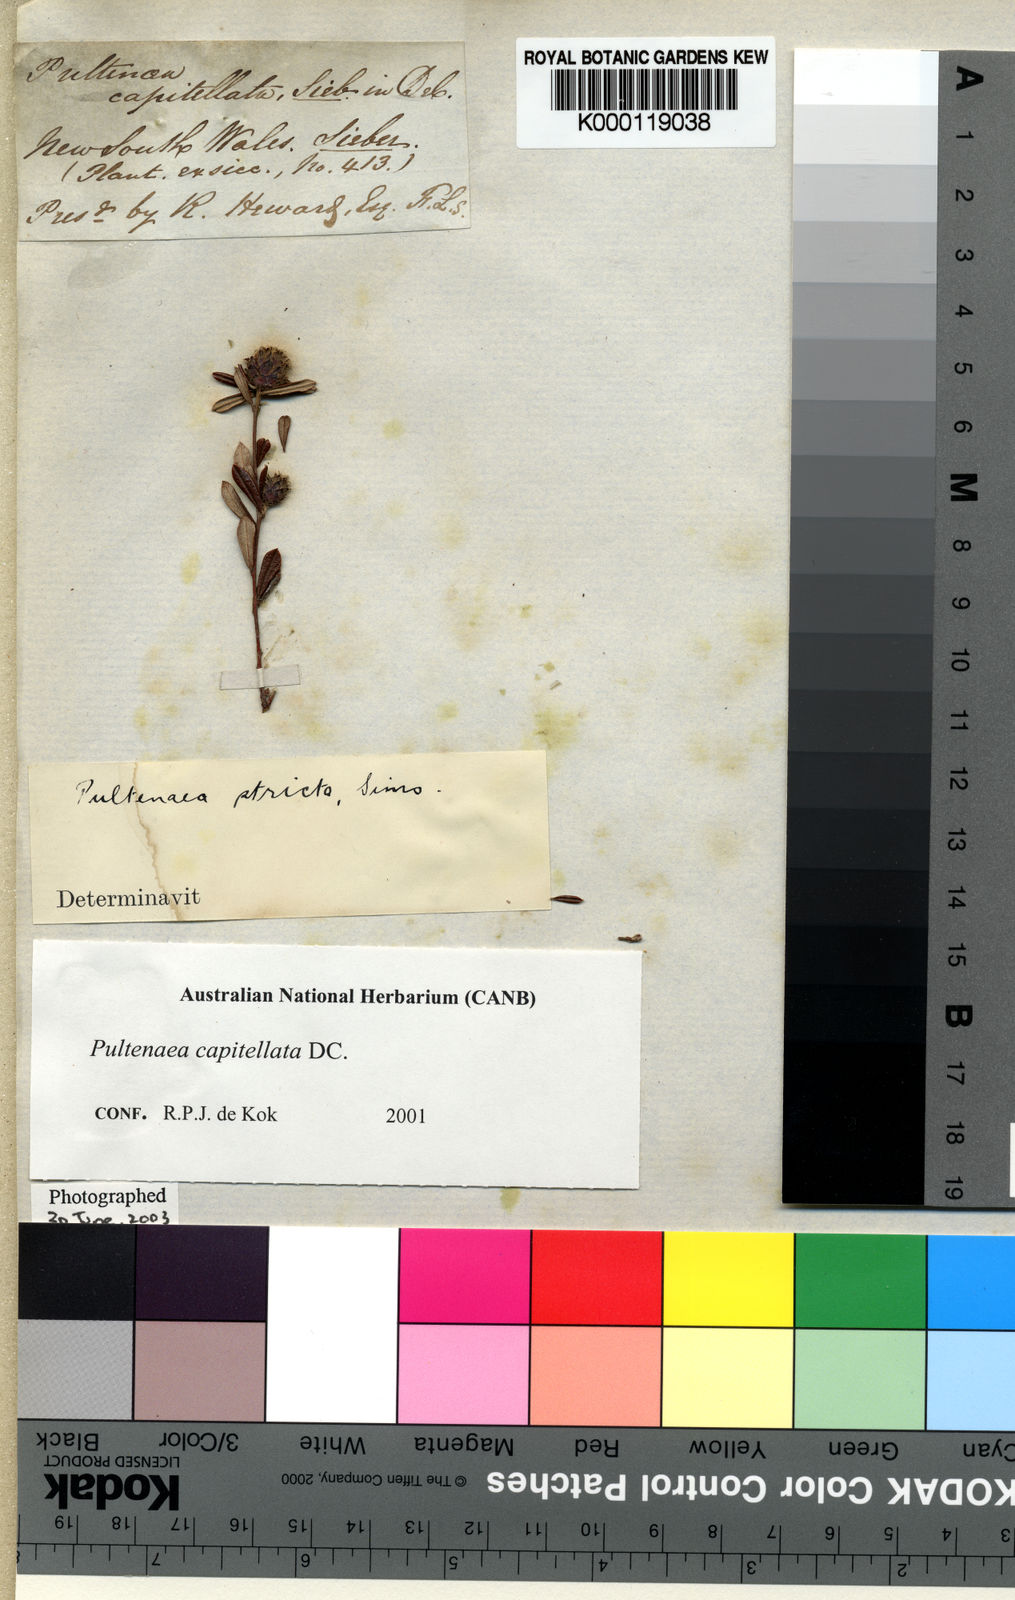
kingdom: Plantae
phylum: Tracheophyta
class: Magnoliopsida
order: Fabales
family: Fabaceae
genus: Pultenaea
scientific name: Pultenaea capitellata
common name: Hard-head bush-pea
